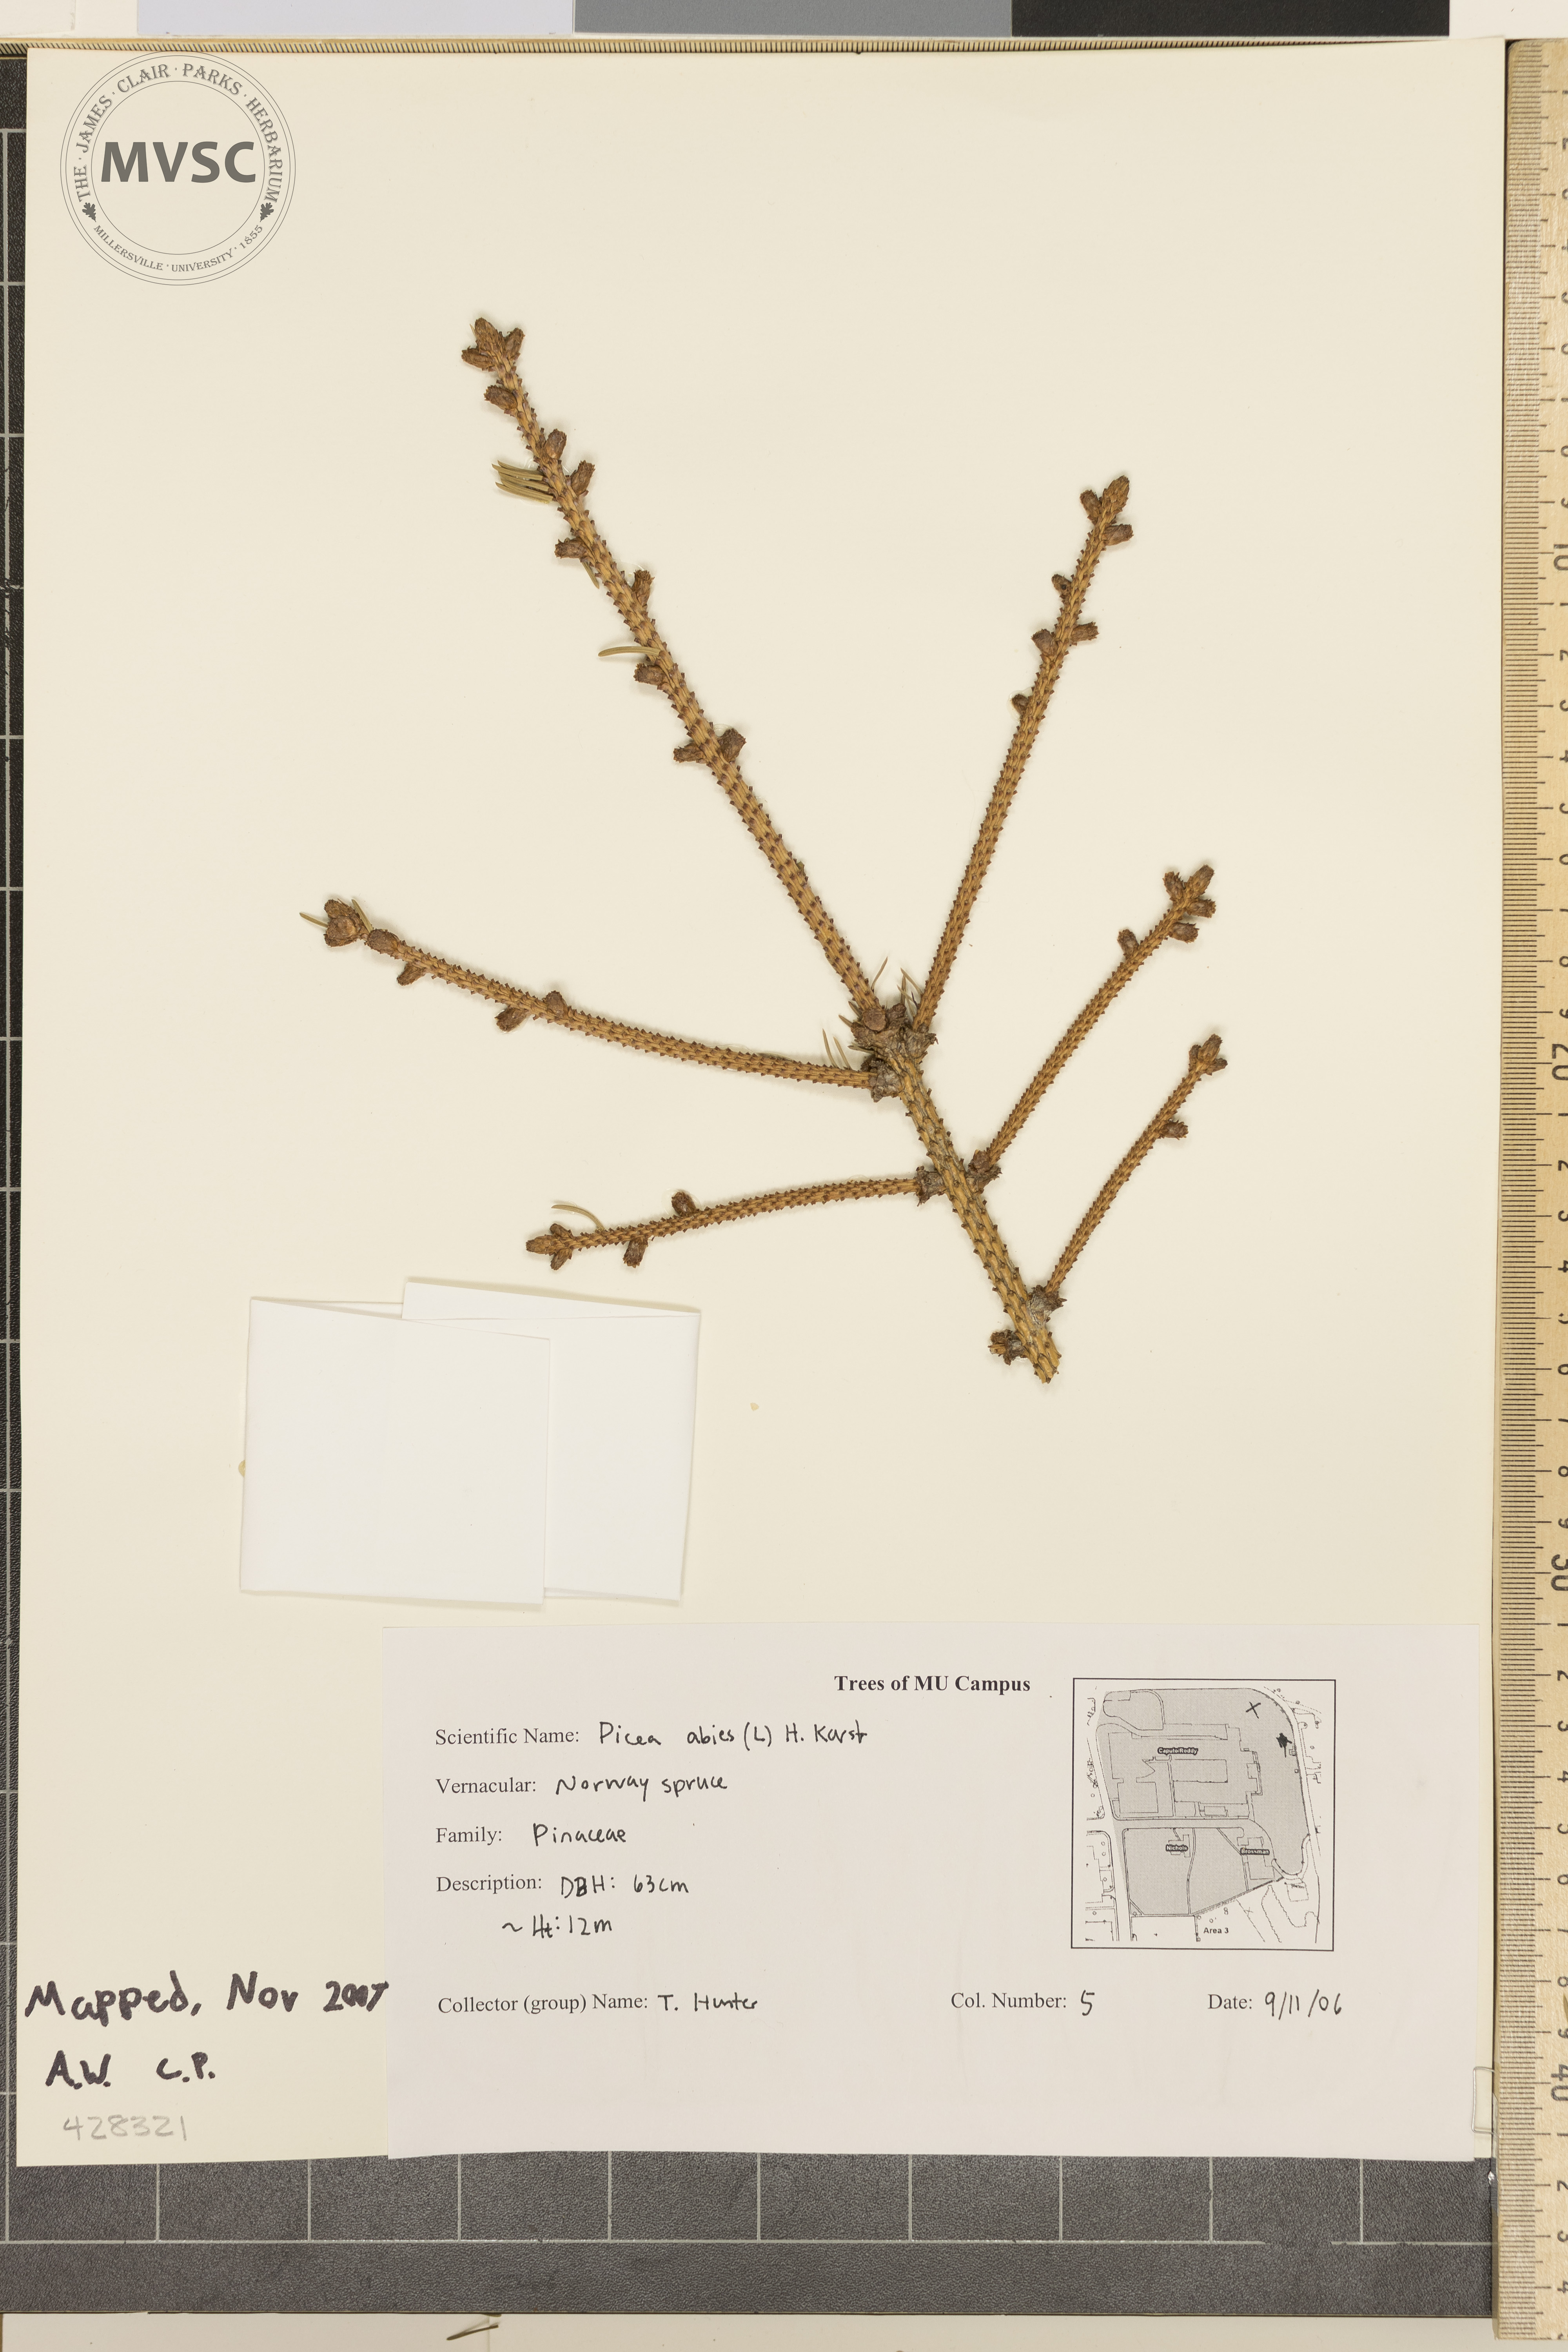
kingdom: Plantae
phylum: Tracheophyta
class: Pinopsida
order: Pinales
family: Pinaceae
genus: Picea
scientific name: Picea abies
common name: norway spruce
